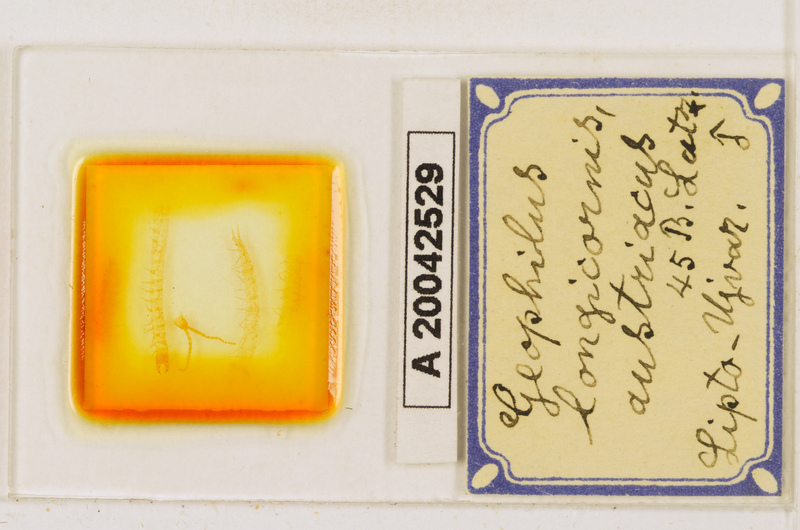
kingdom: Animalia
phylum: Arthropoda
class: Chilopoda
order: Geophilomorpha
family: Geophilidae
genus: Geophilus
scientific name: Geophilus flavus
